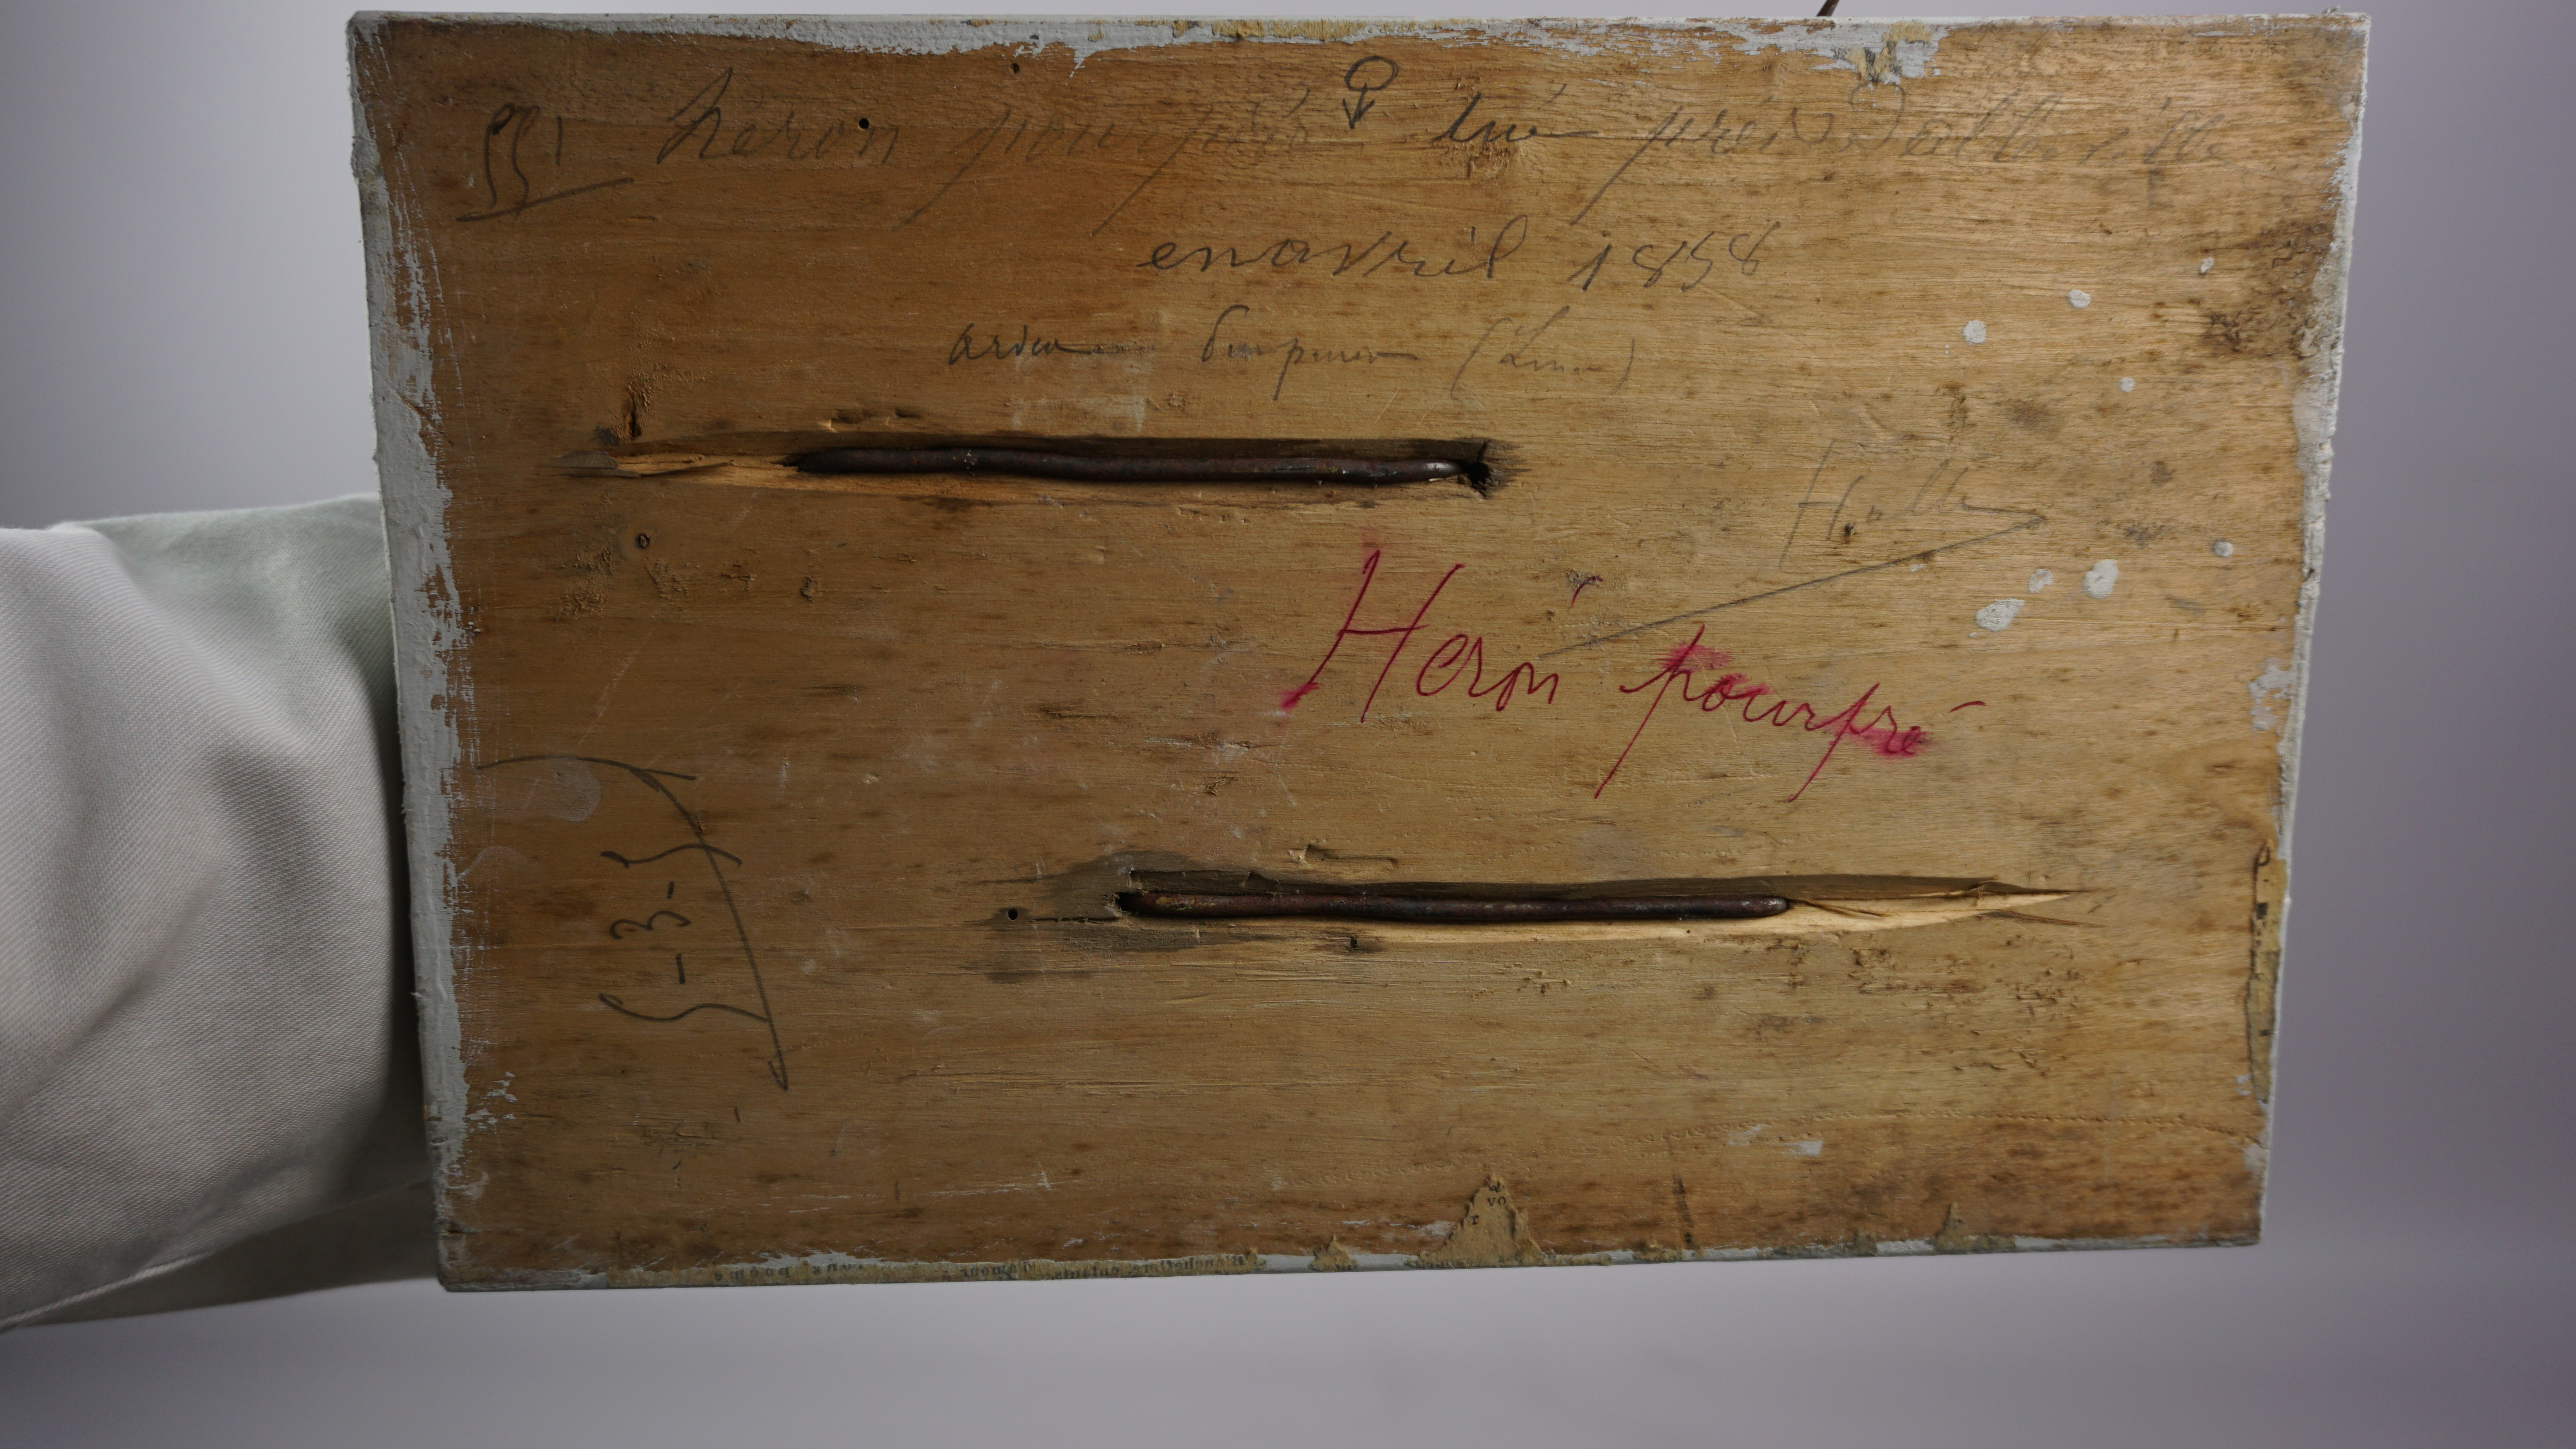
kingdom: Animalia
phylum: Chordata
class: Aves
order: Pelecaniformes
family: Ardeidae
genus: Ardea
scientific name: Ardea purpurea
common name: Purple heron
